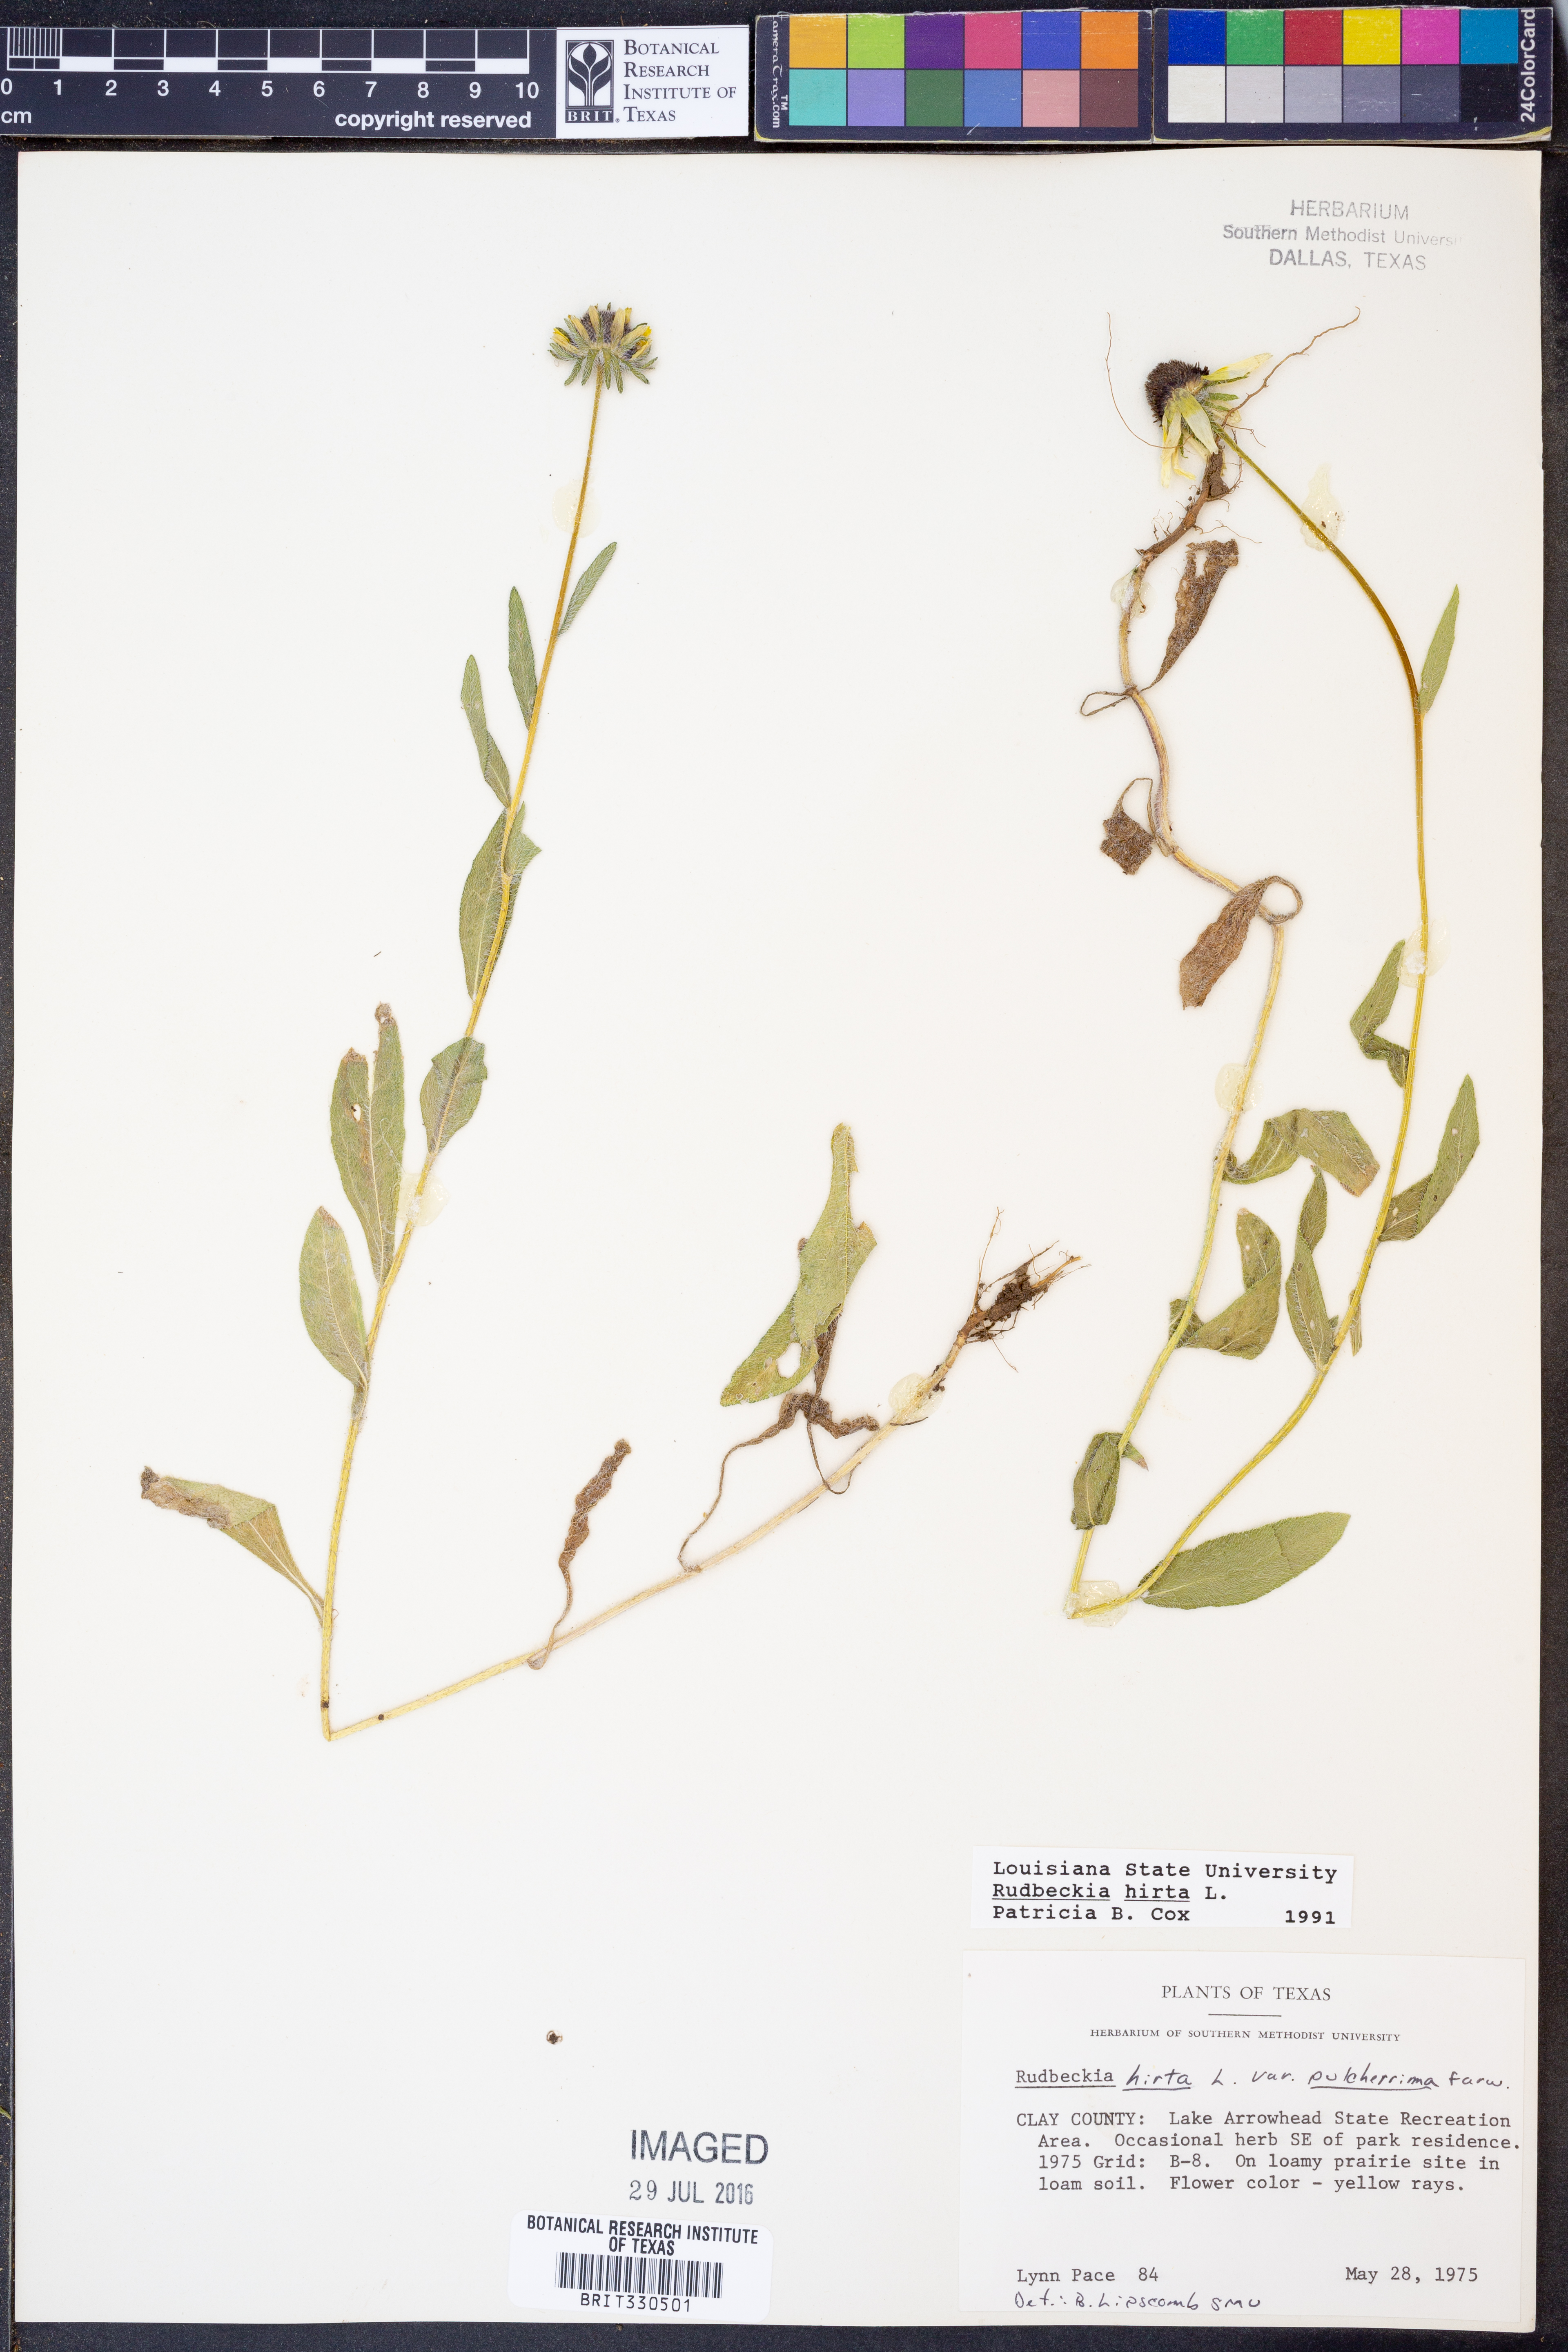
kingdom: Plantae
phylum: Tracheophyta
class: Magnoliopsida
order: Asterales
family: Asteraceae
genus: Rudbeckia
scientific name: Rudbeckia hirta
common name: Black-eyed-susan
